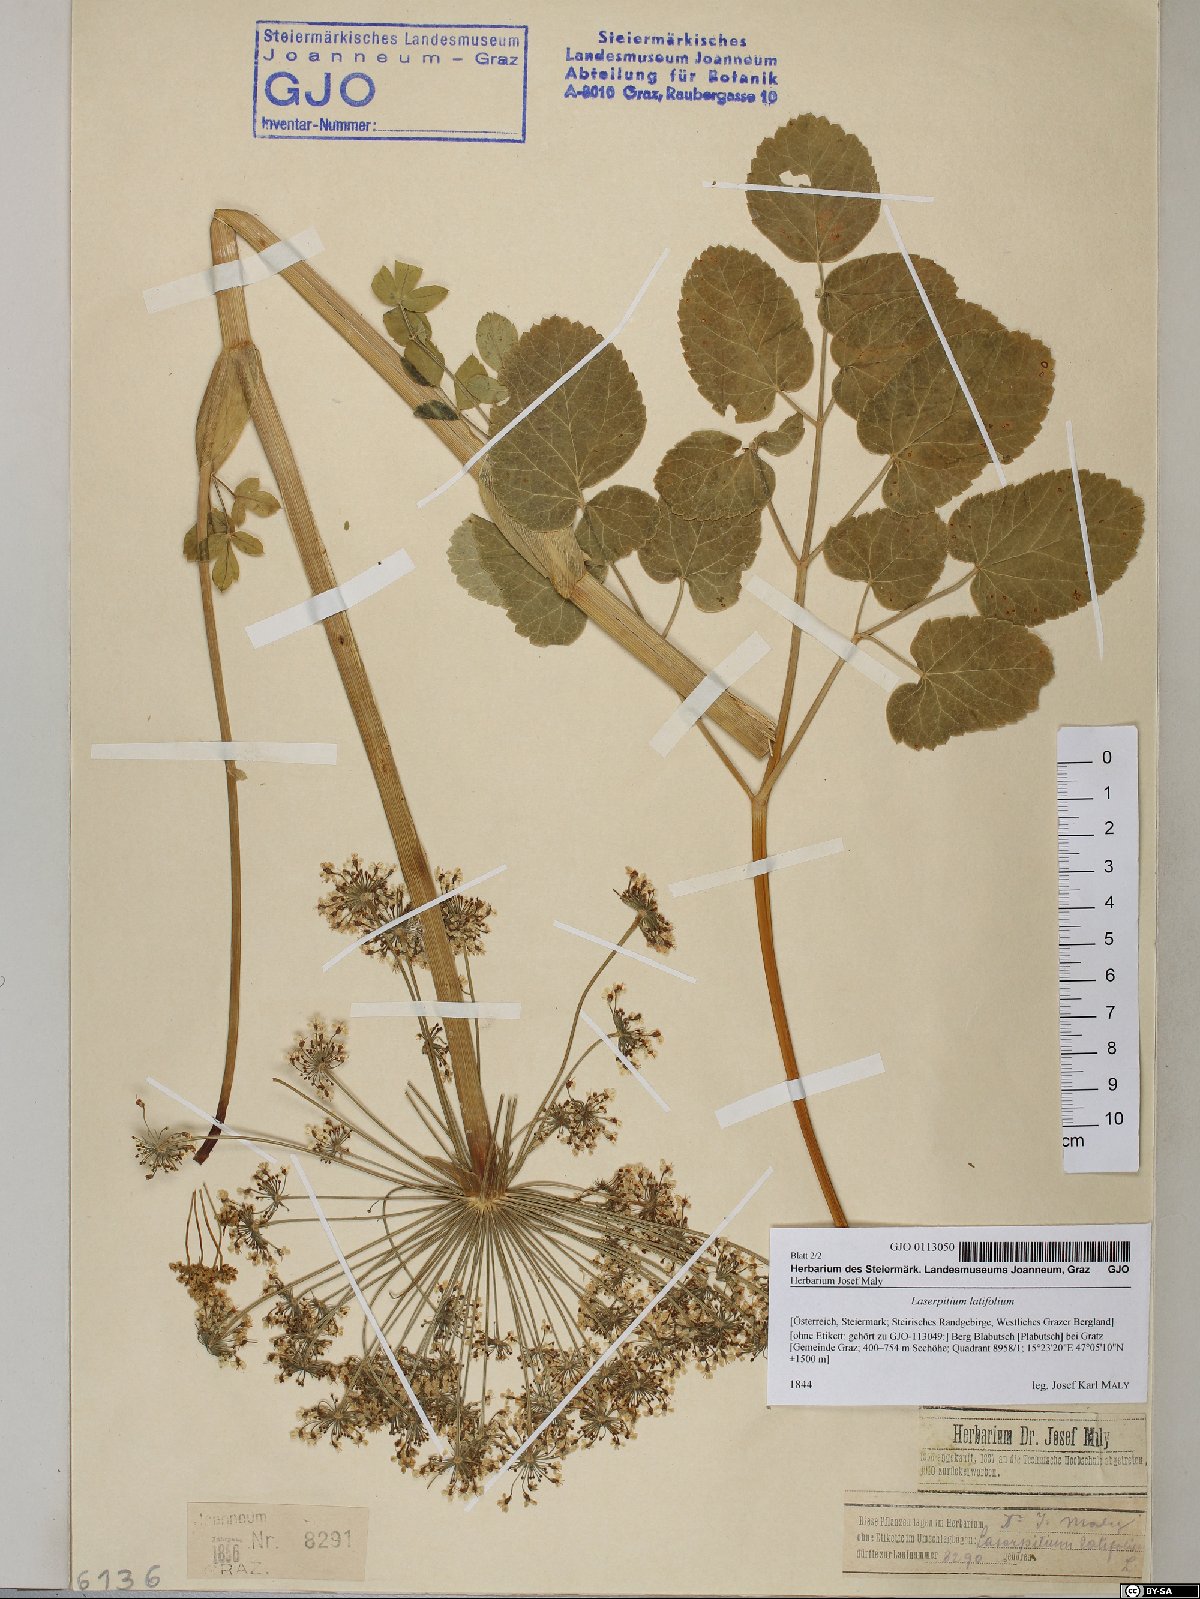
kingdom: Plantae
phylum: Tracheophyta
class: Magnoliopsida
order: Apiales
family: Apiaceae
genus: Laserpitium
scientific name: Laserpitium latifolium
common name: Broadleaf sermountain
